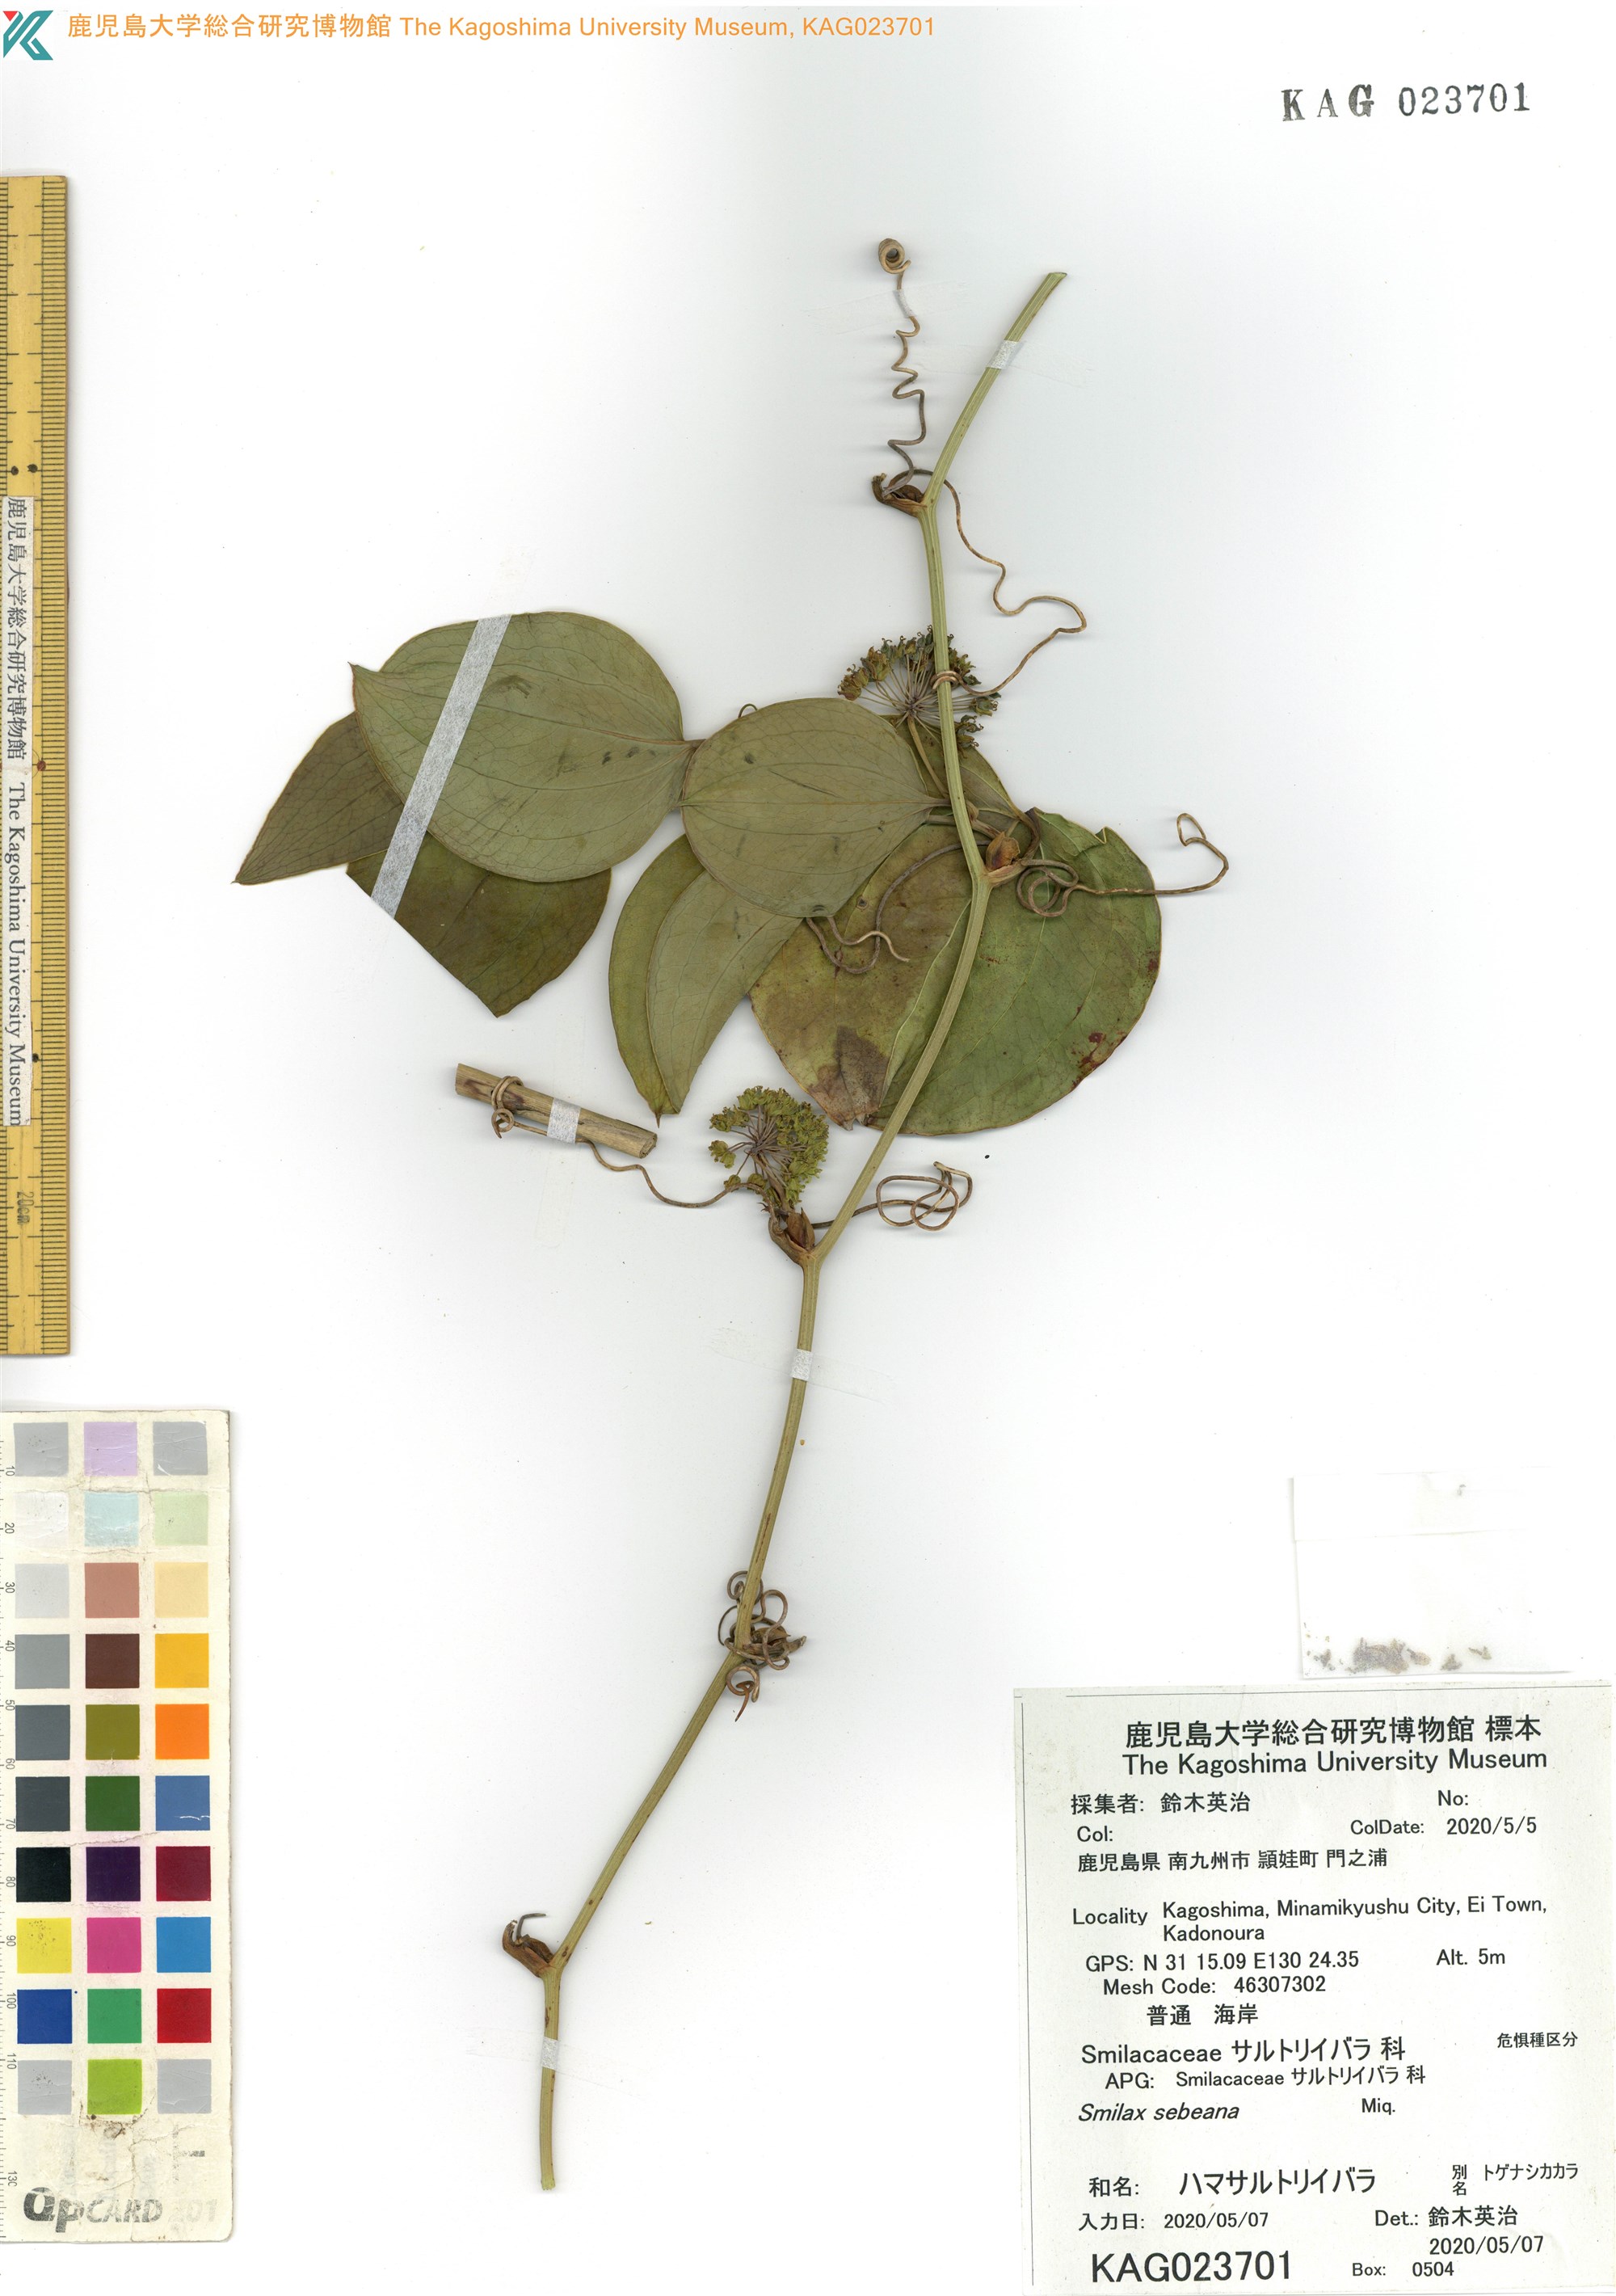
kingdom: Plantae
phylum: Tracheophyta
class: Liliopsida
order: Liliales
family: Smilacaceae
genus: Smilax
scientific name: Smilax sebeana
